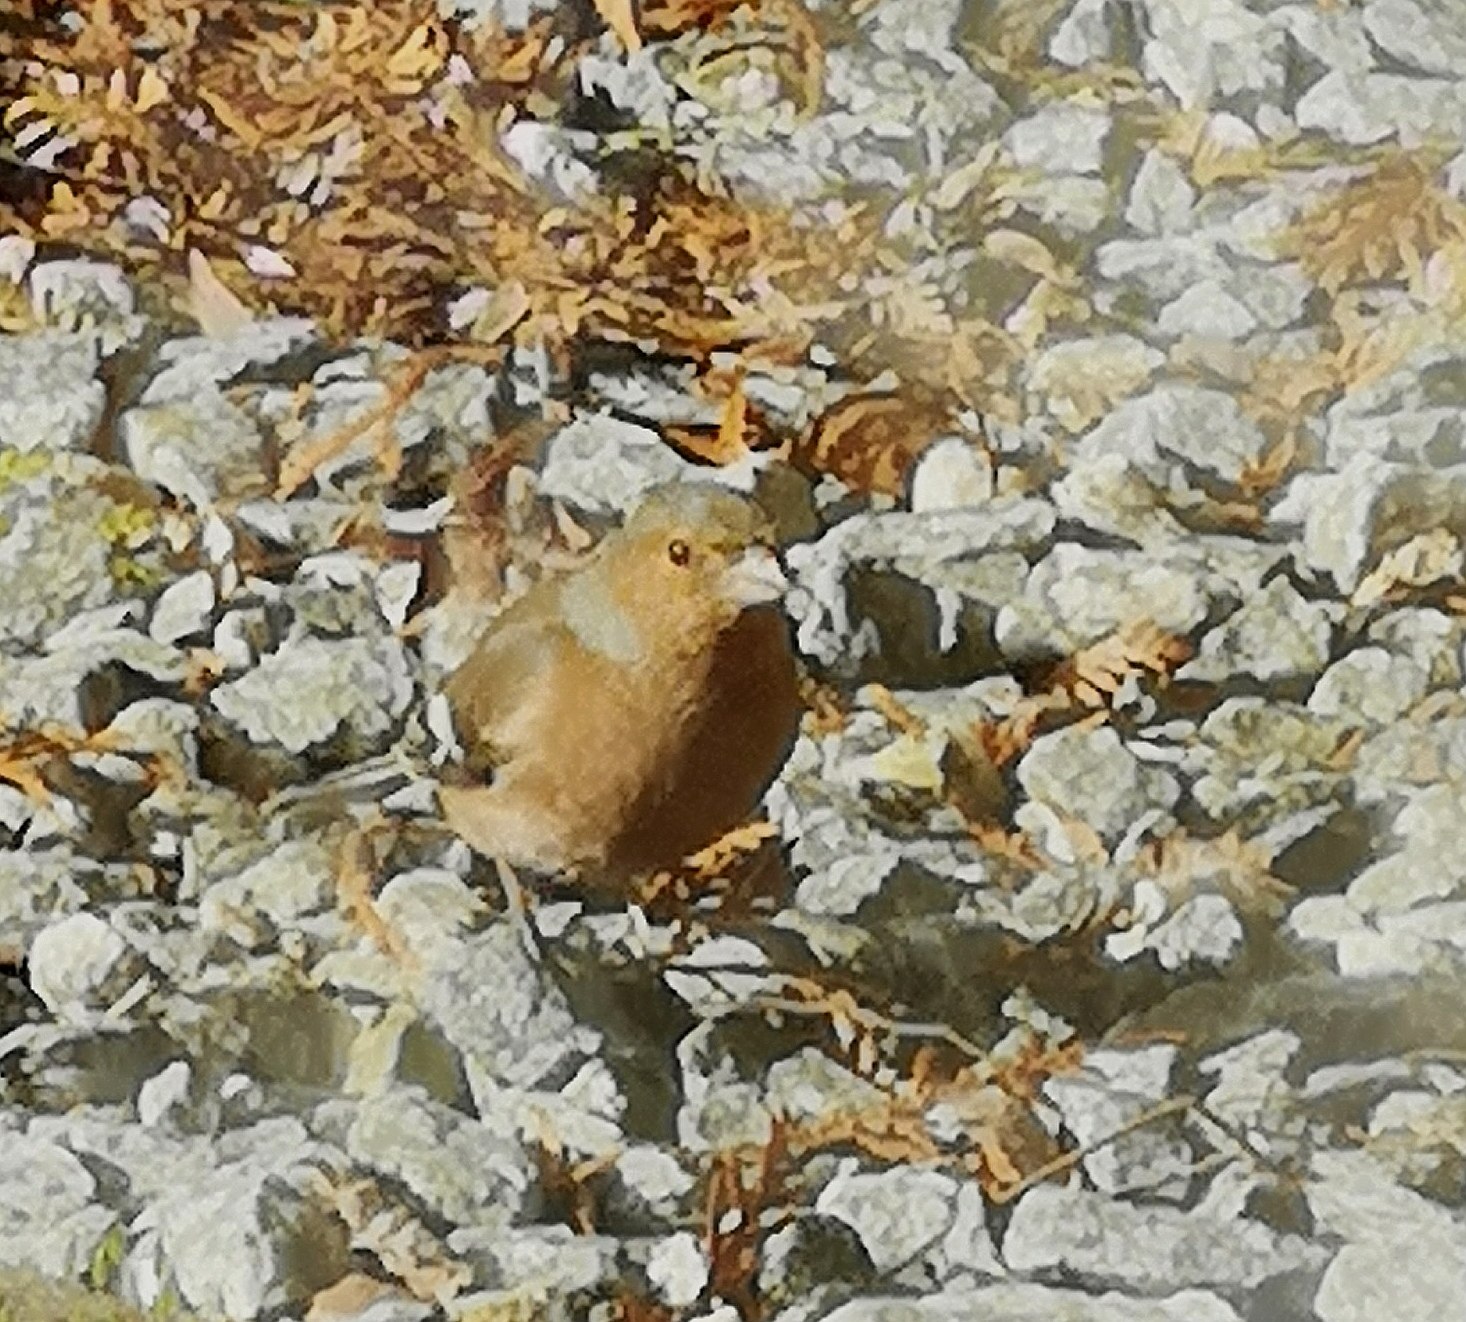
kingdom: Animalia
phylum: Chordata
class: Aves
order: Passeriformes
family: Fringillidae
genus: Fringilla
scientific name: Fringilla coelebs
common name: Bogfinke
